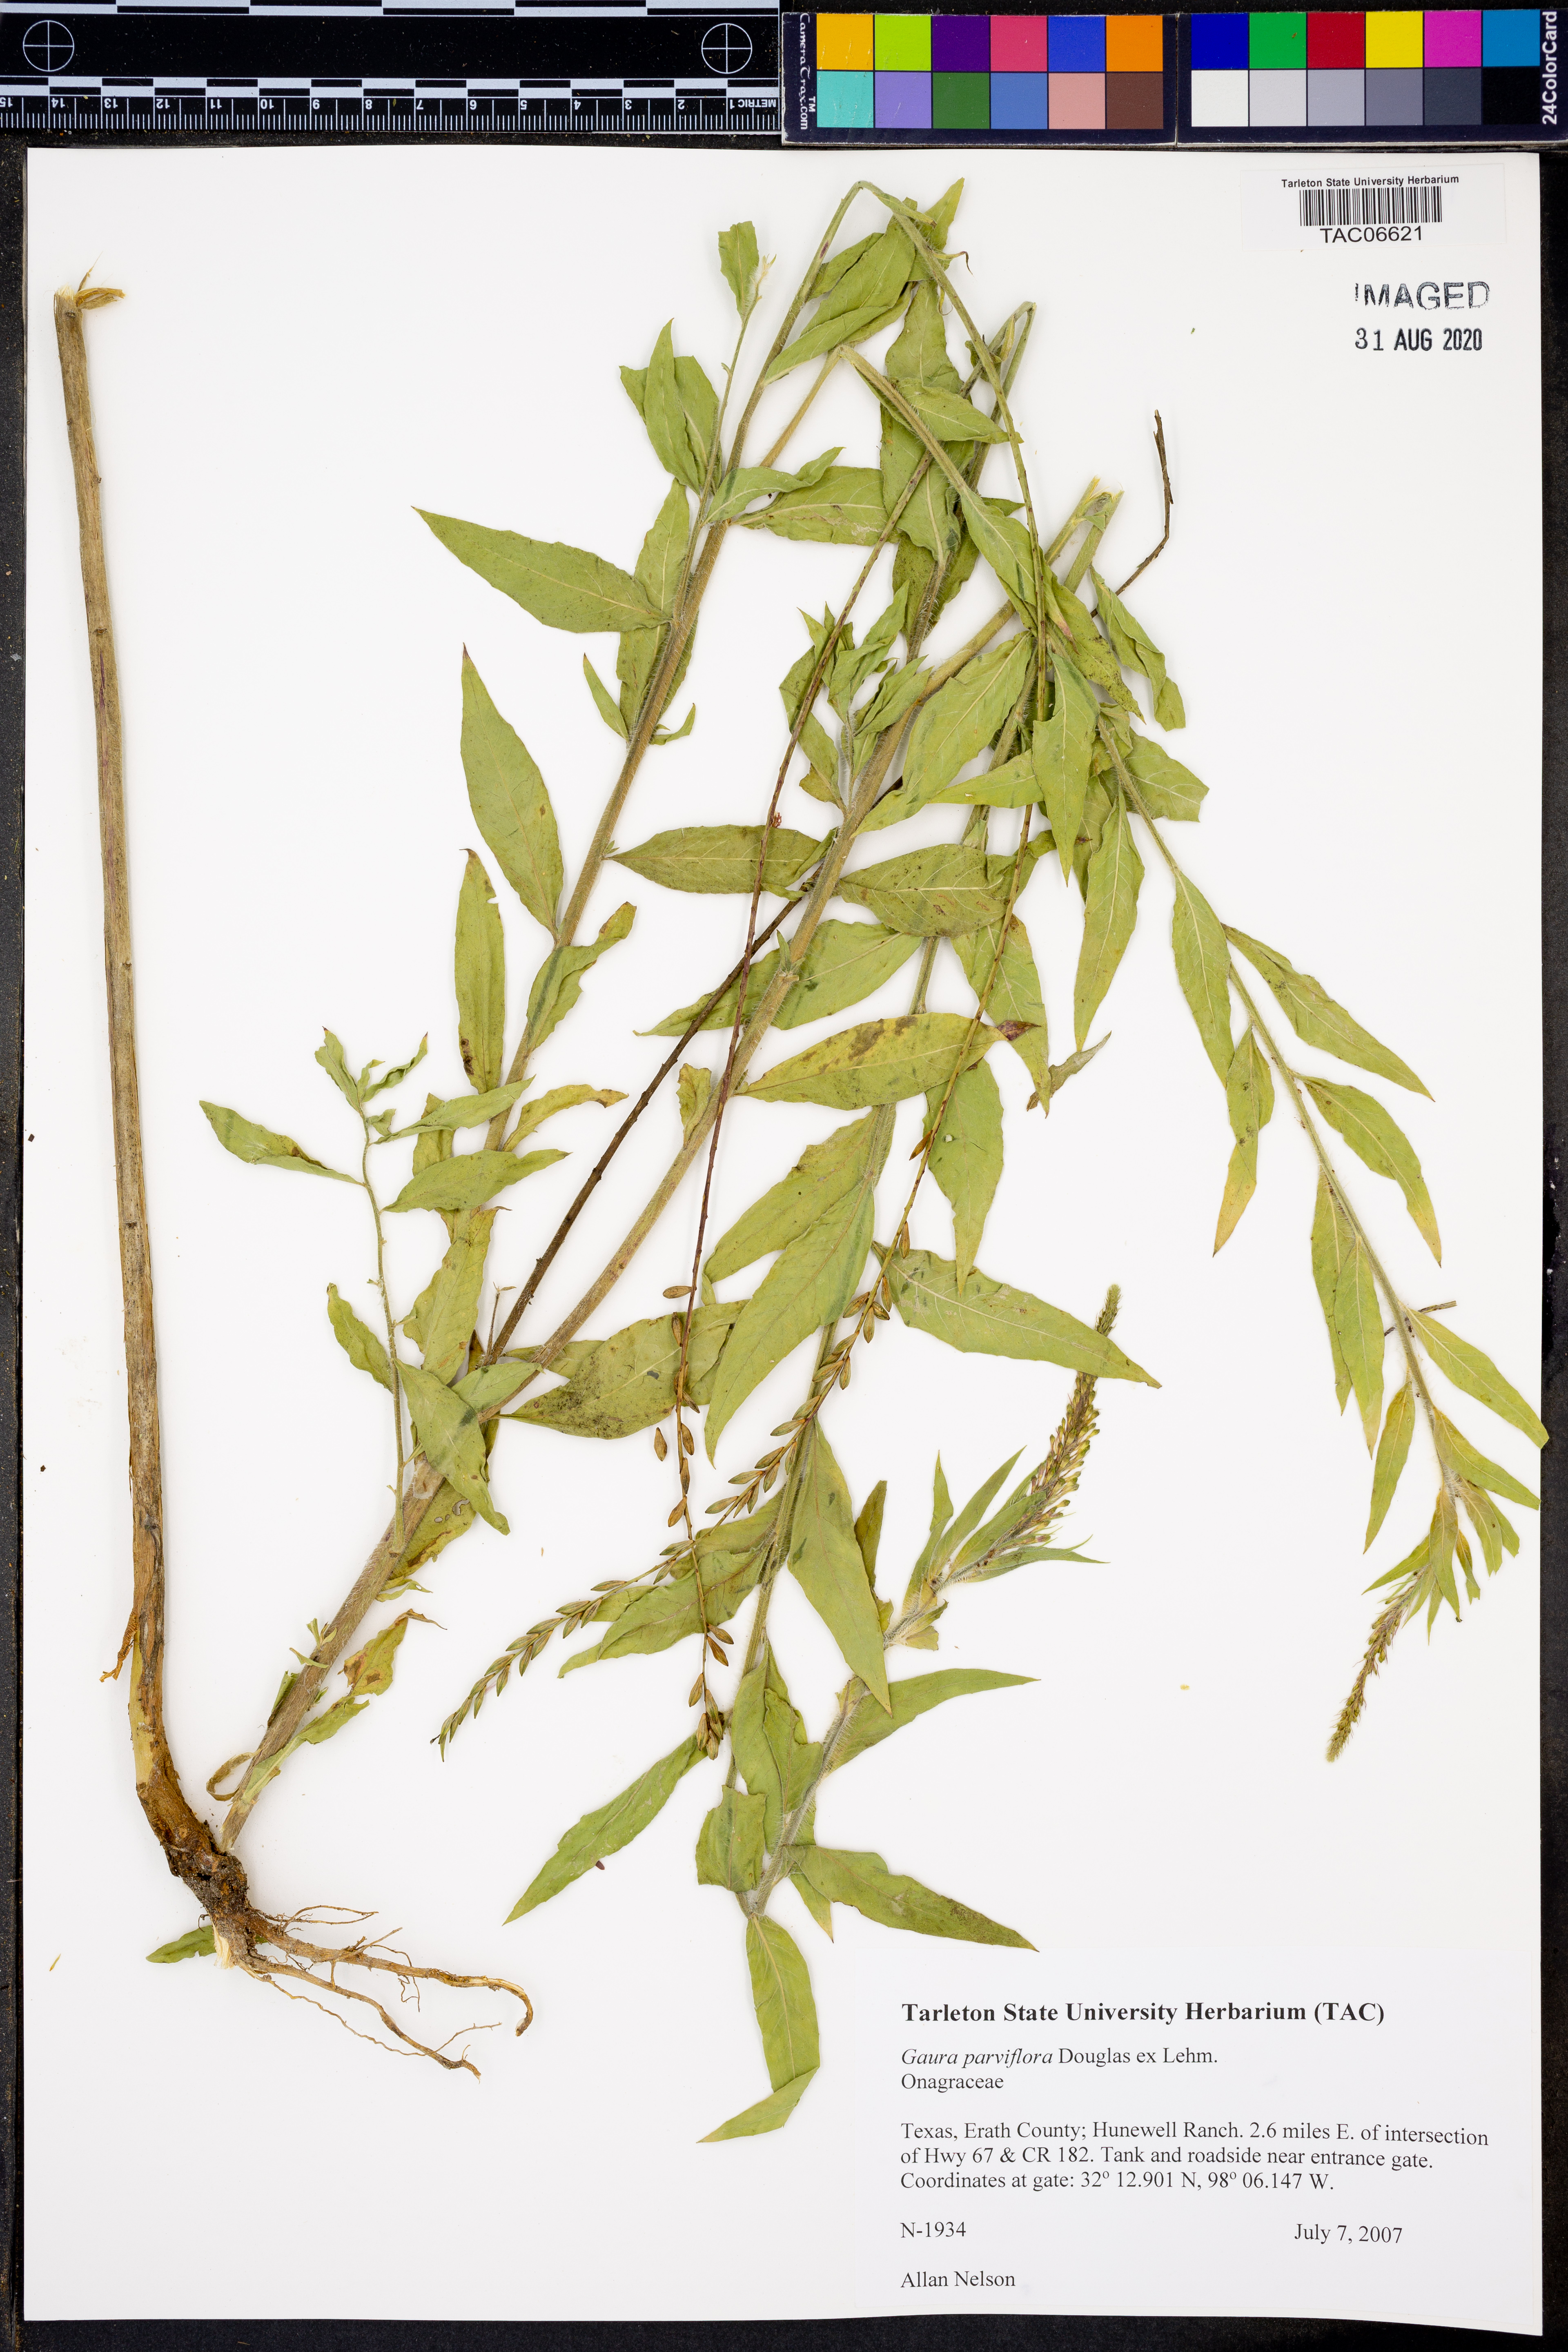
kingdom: Plantae
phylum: Tracheophyta
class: Magnoliopsida
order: Myrtales
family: Onagraceae
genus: Oenothera
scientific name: Oenothera curtiflora
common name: Velvetweed
